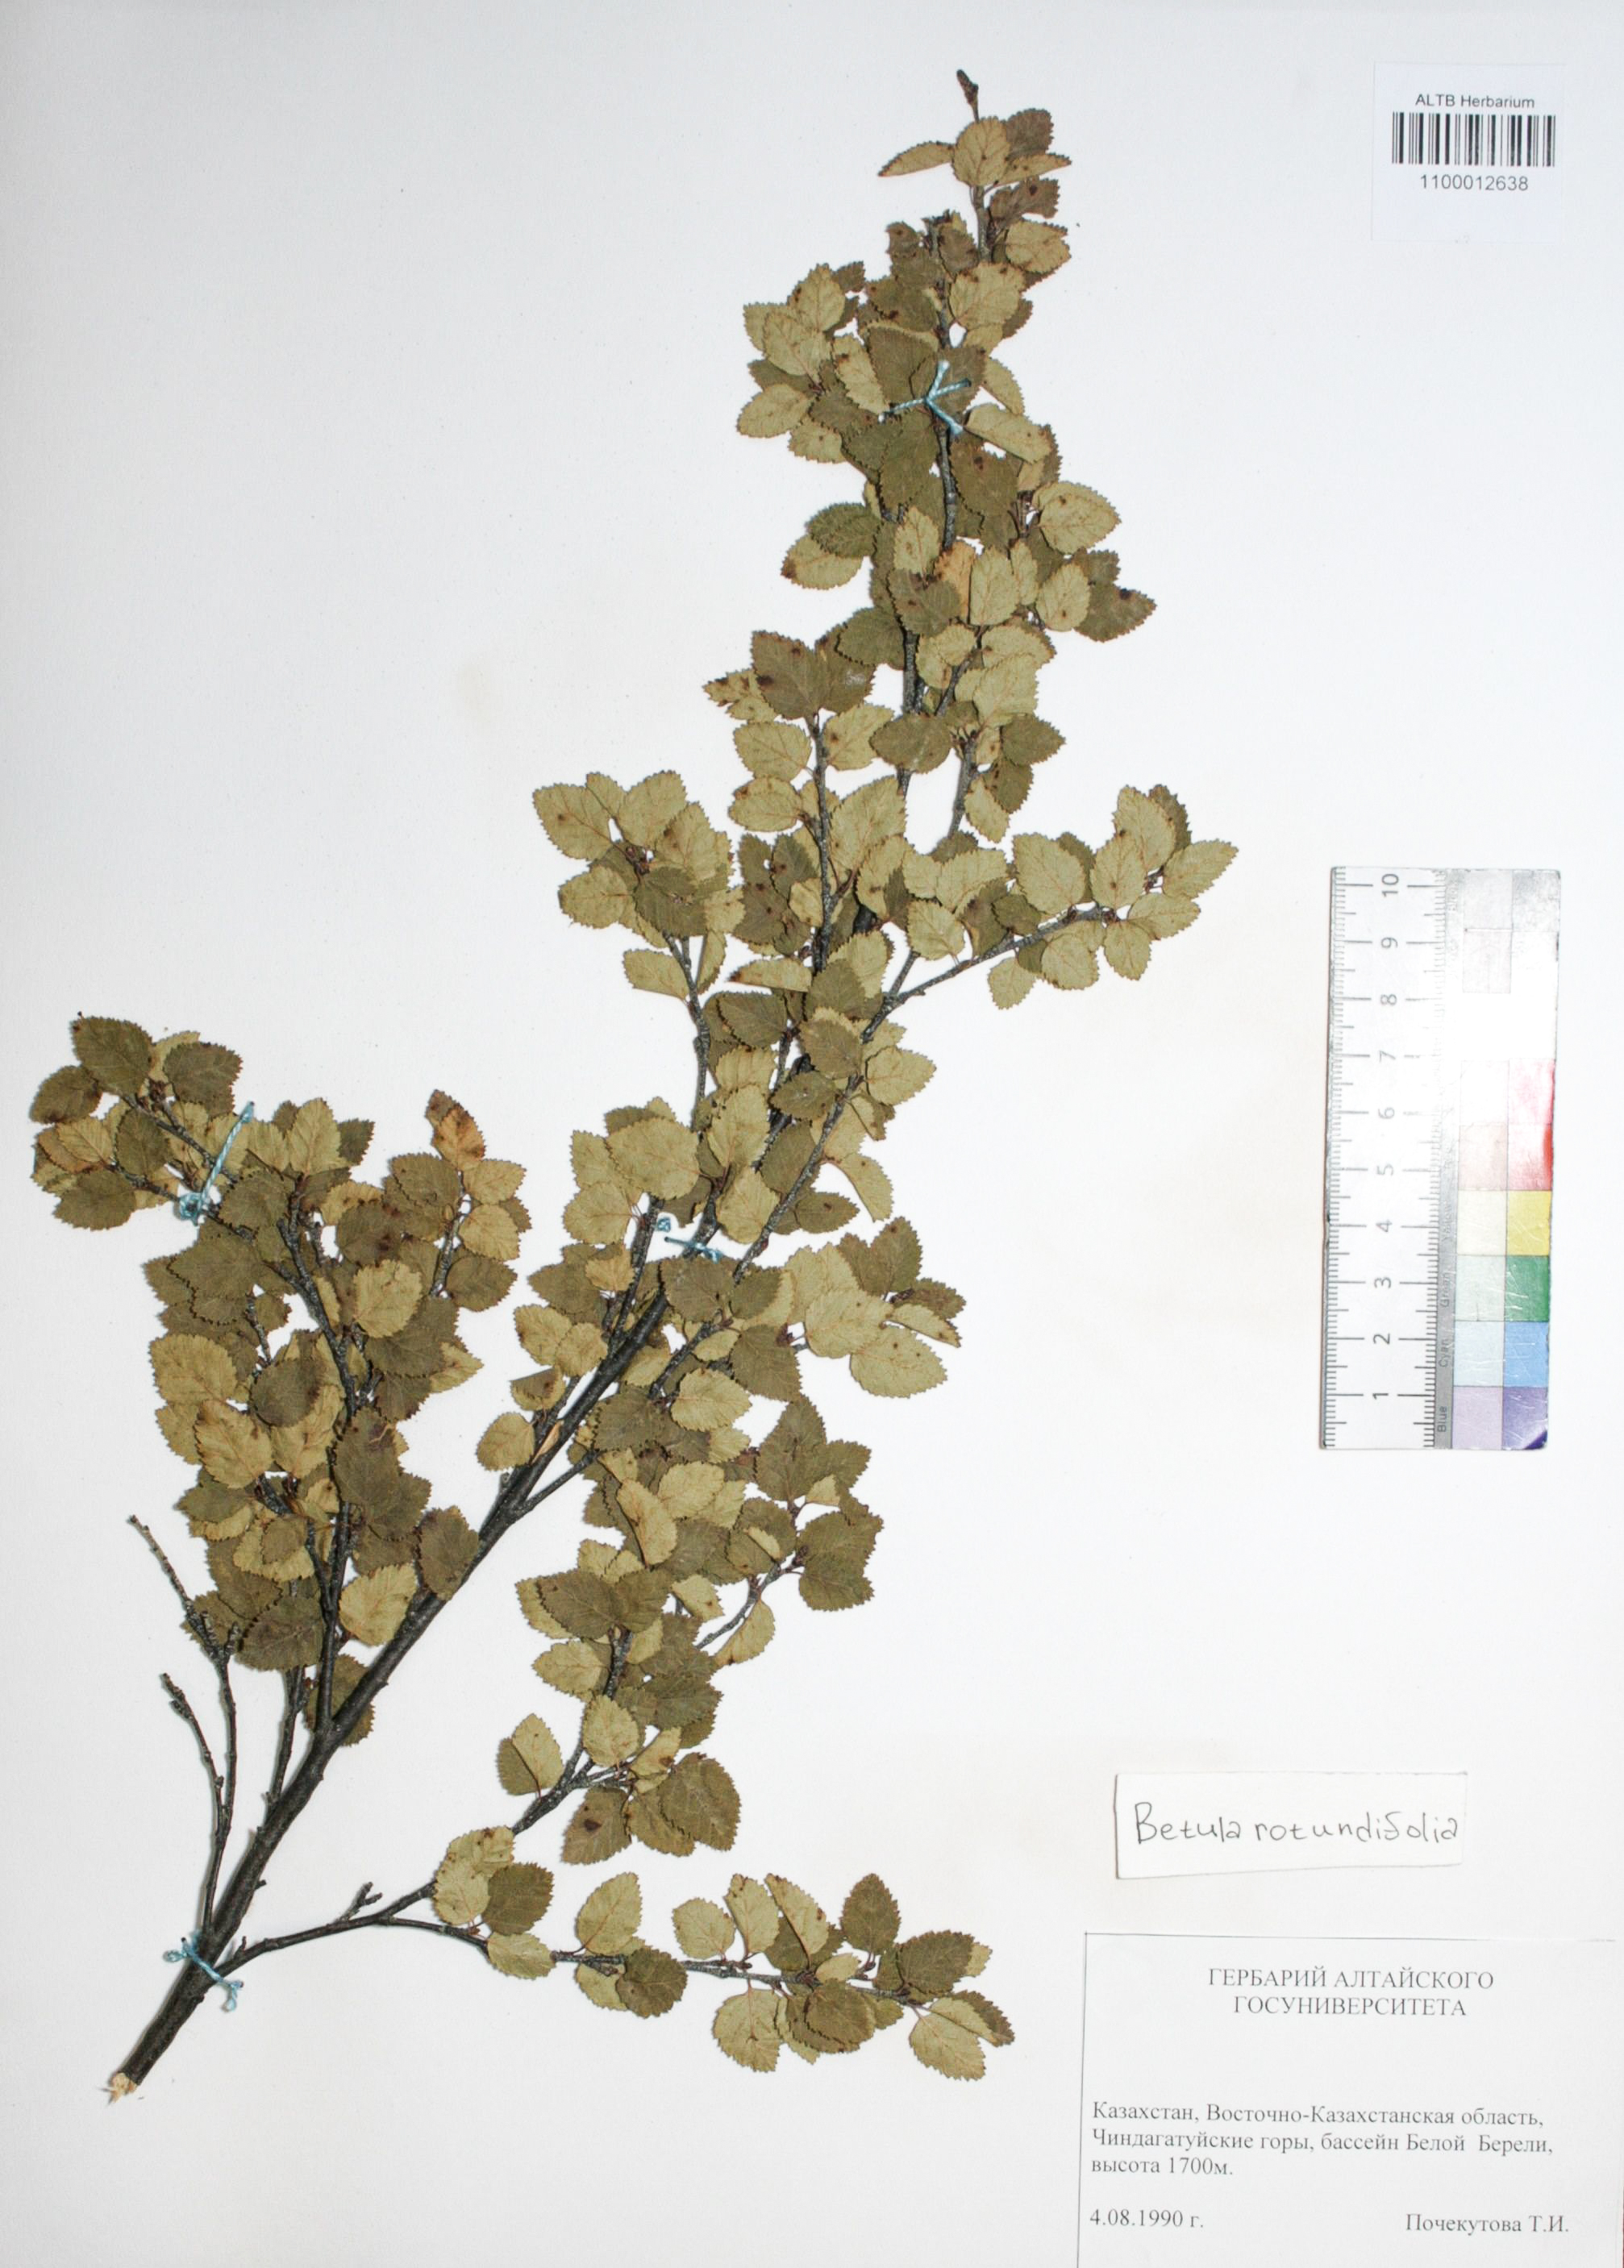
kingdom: Plantae
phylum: Tracheophyta
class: Magnoliopsida
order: Fagales
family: Betulaceae
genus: Betula
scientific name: Betula glandulosa
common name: Dwarf birch
